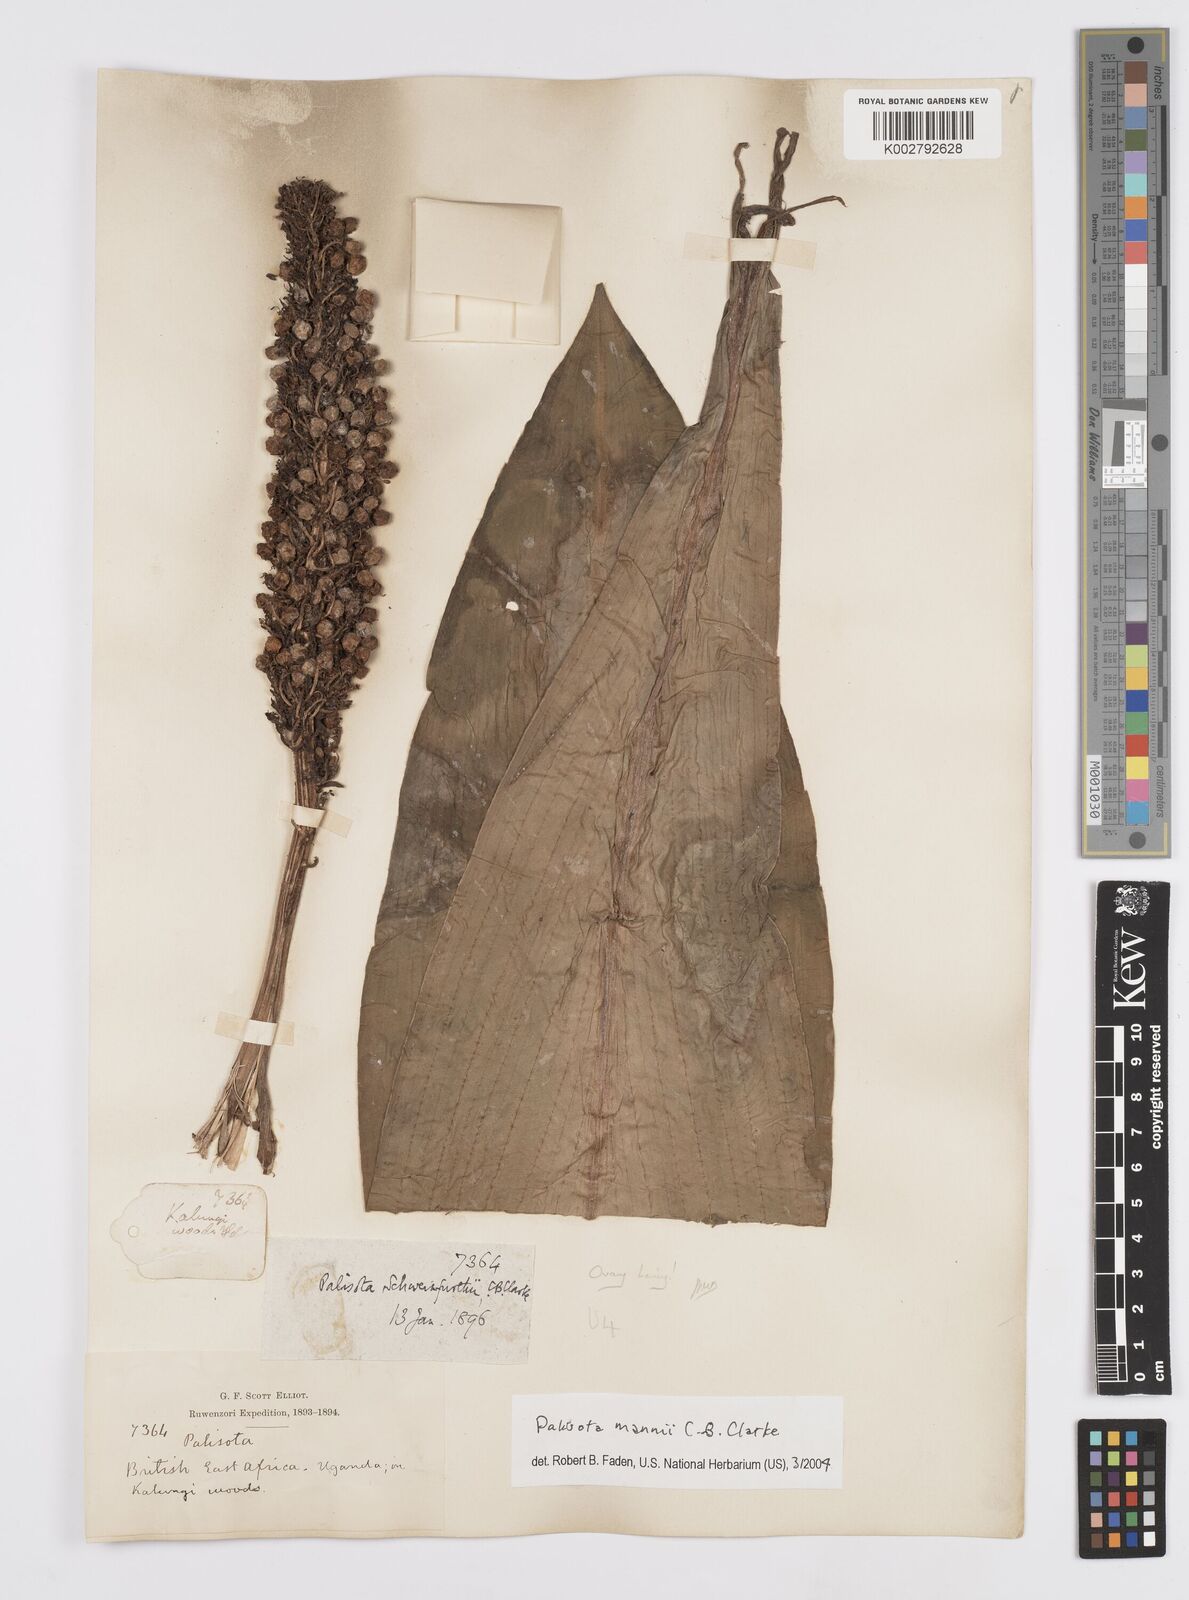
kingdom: Plantae
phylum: Tracheophyta
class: Liliopsida
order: Commelinales
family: Commelinaceae
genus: Palisota
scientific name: Palisota mannii
